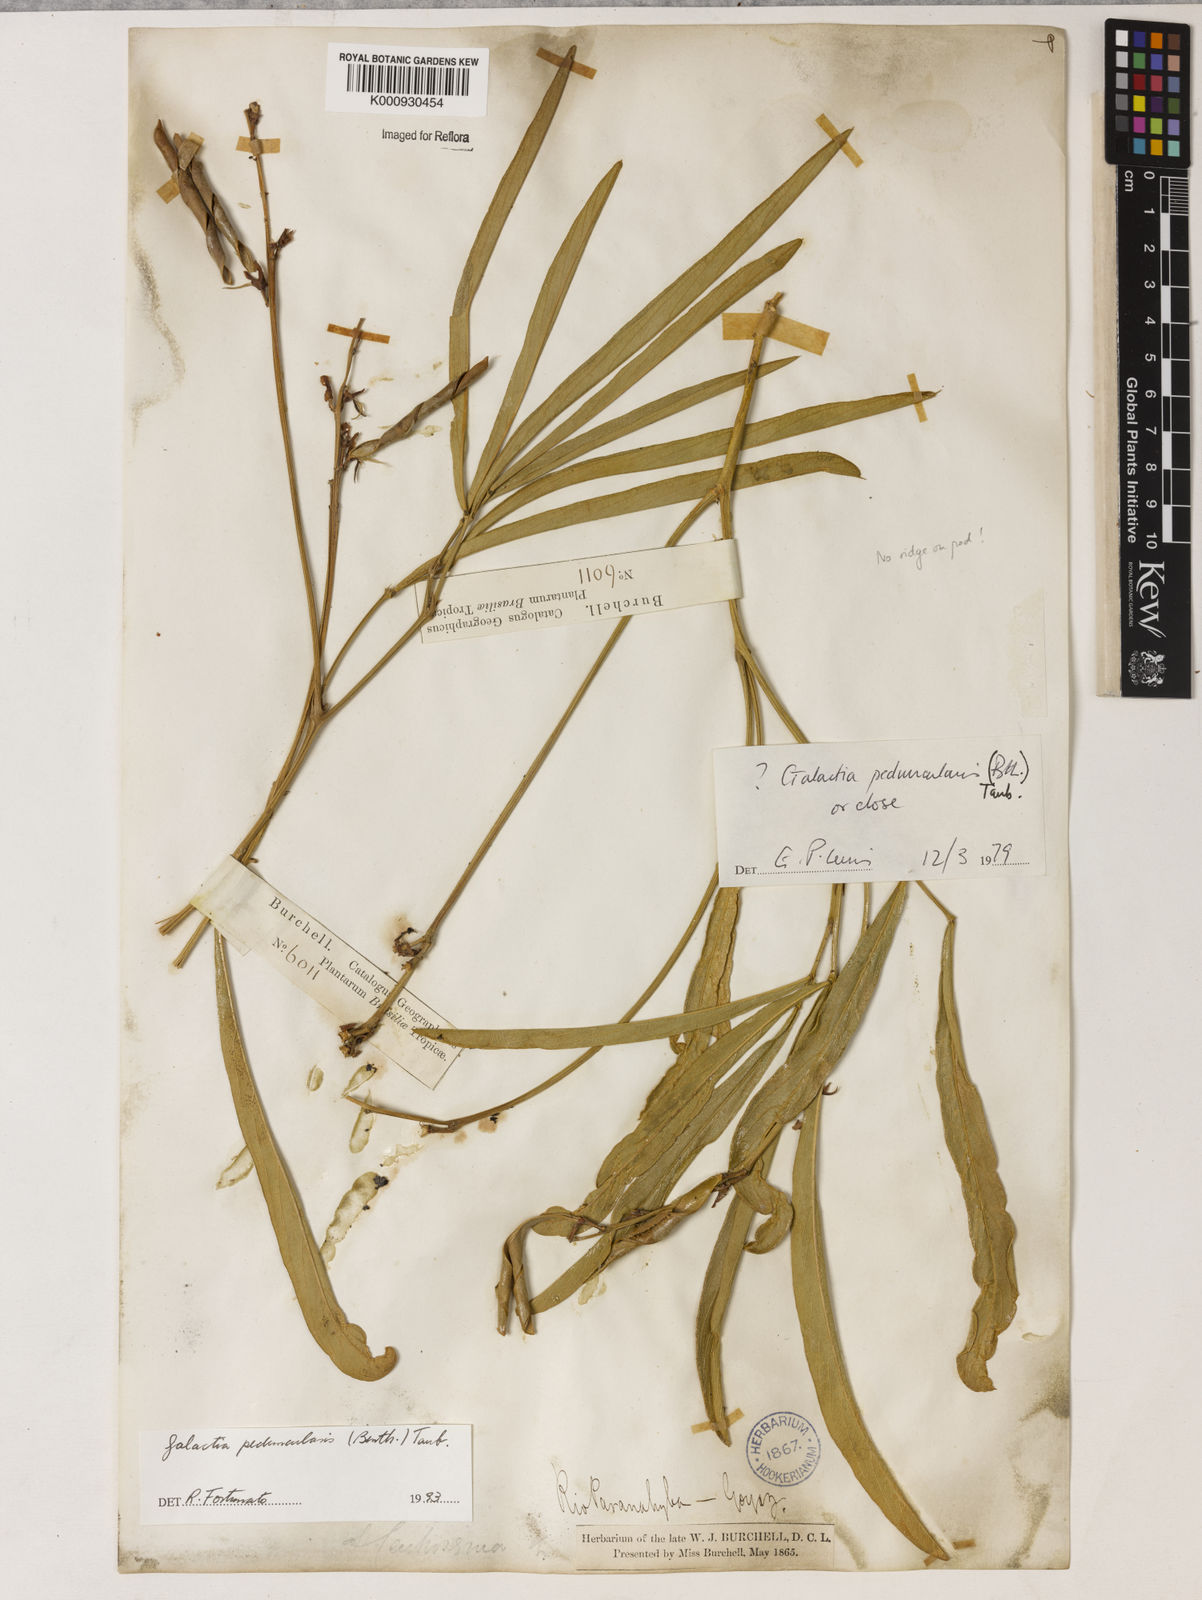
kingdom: Plantae
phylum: Tracheophyta
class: Magnoliopsida
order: Fabales
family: Fabaceae
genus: Galactia
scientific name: Galactia
